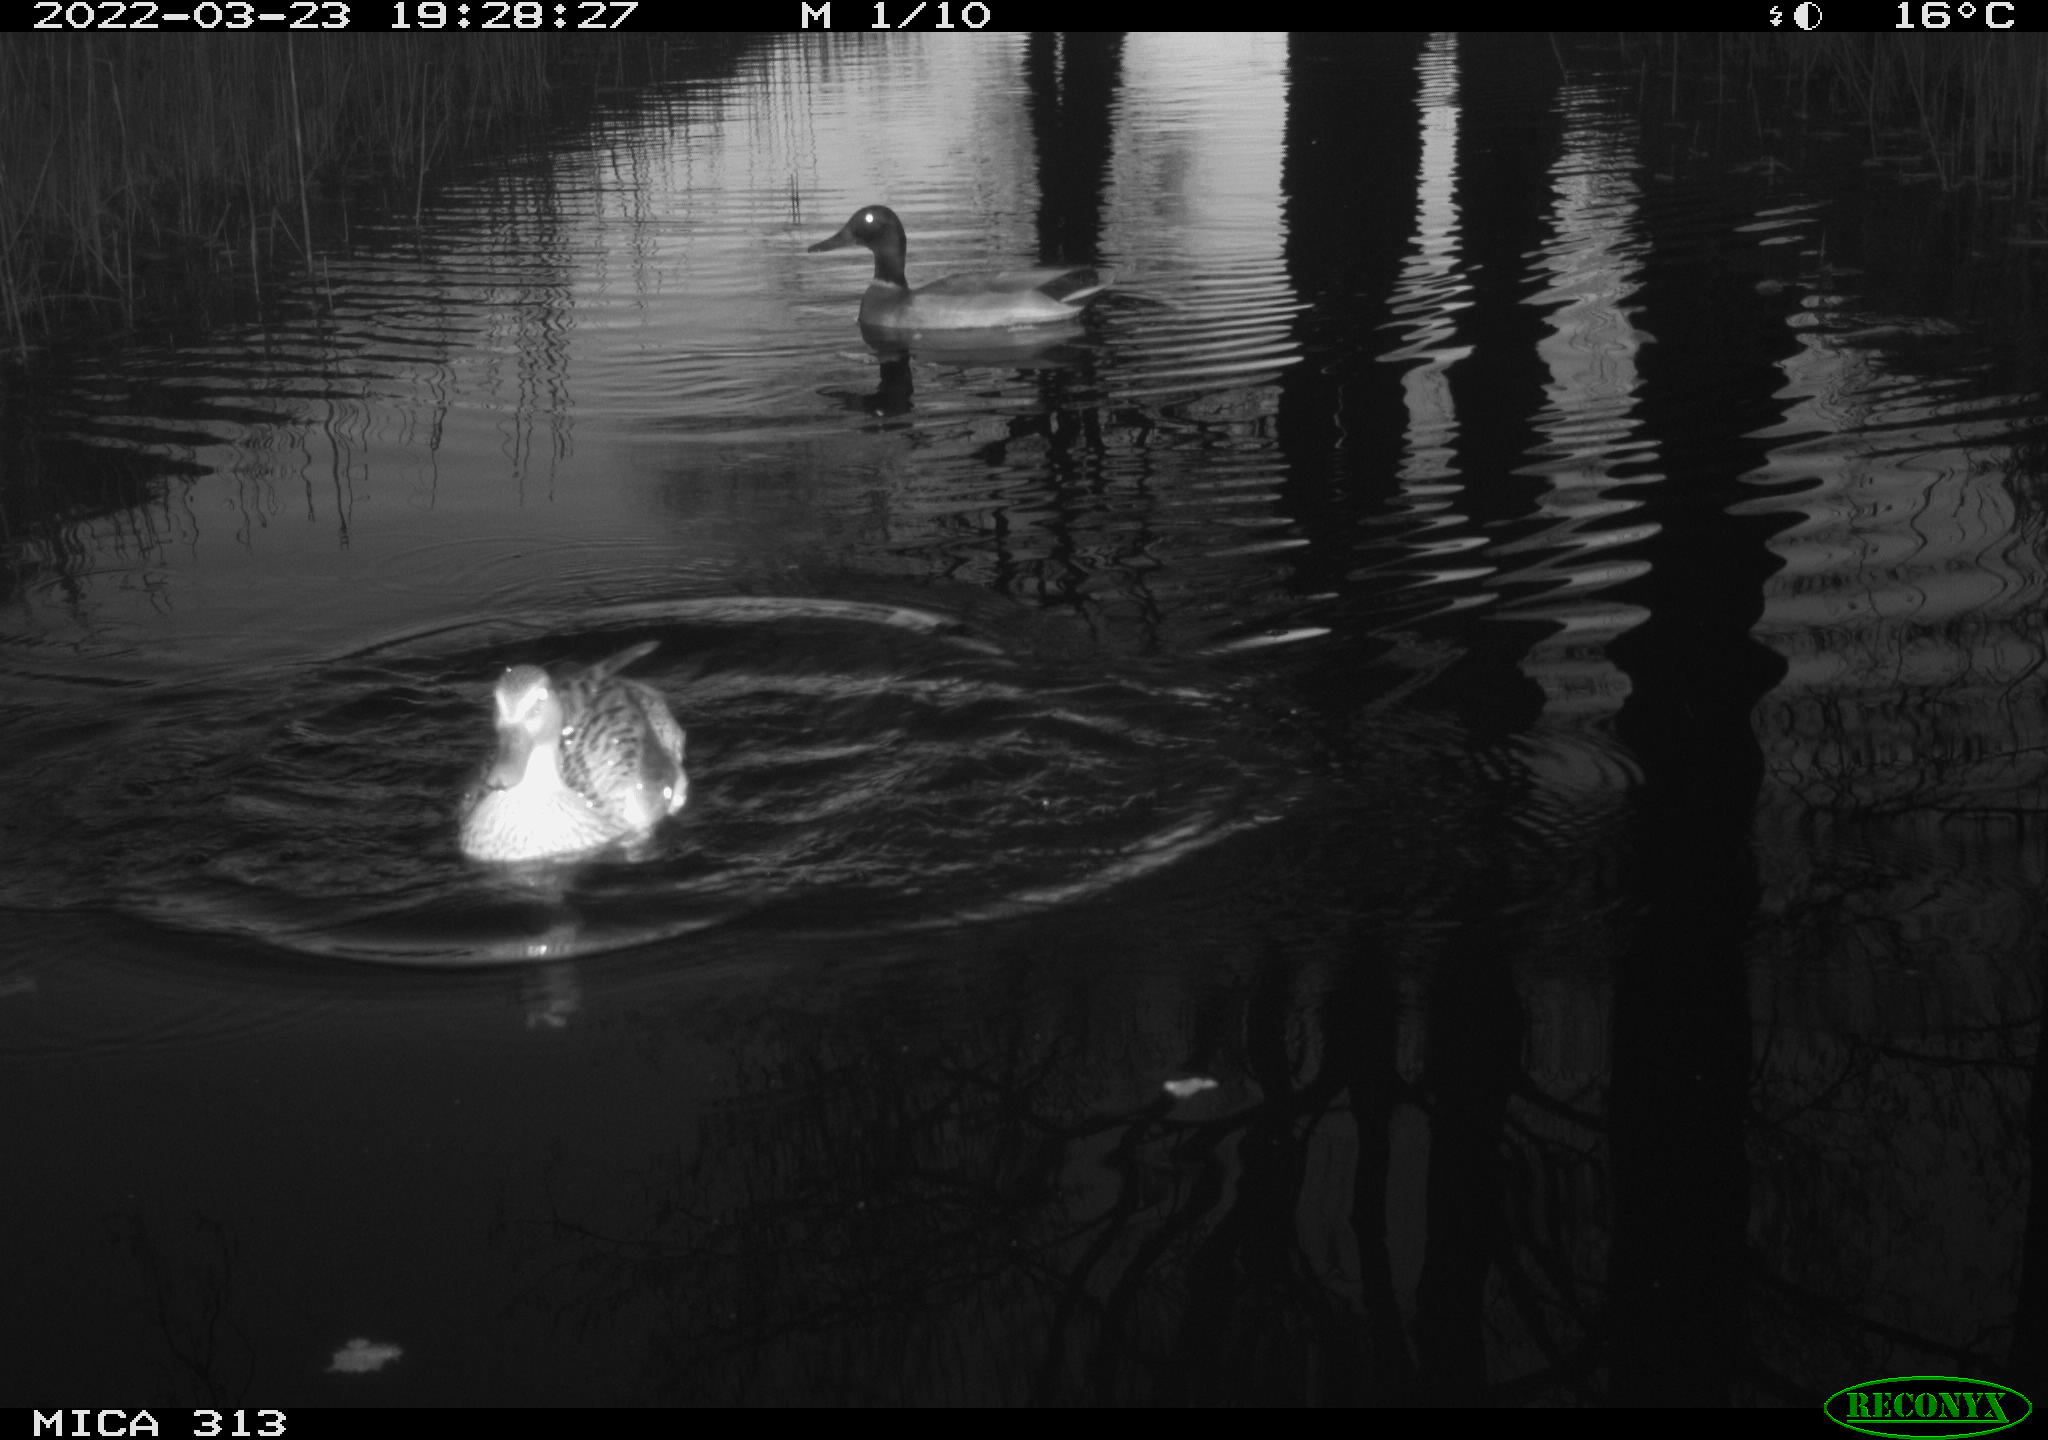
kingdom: Animalia
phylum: Chordata
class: Aves
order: Anseriformes
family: Anatidae
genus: Anas
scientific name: Anas platyrhynchos
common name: Mallard
